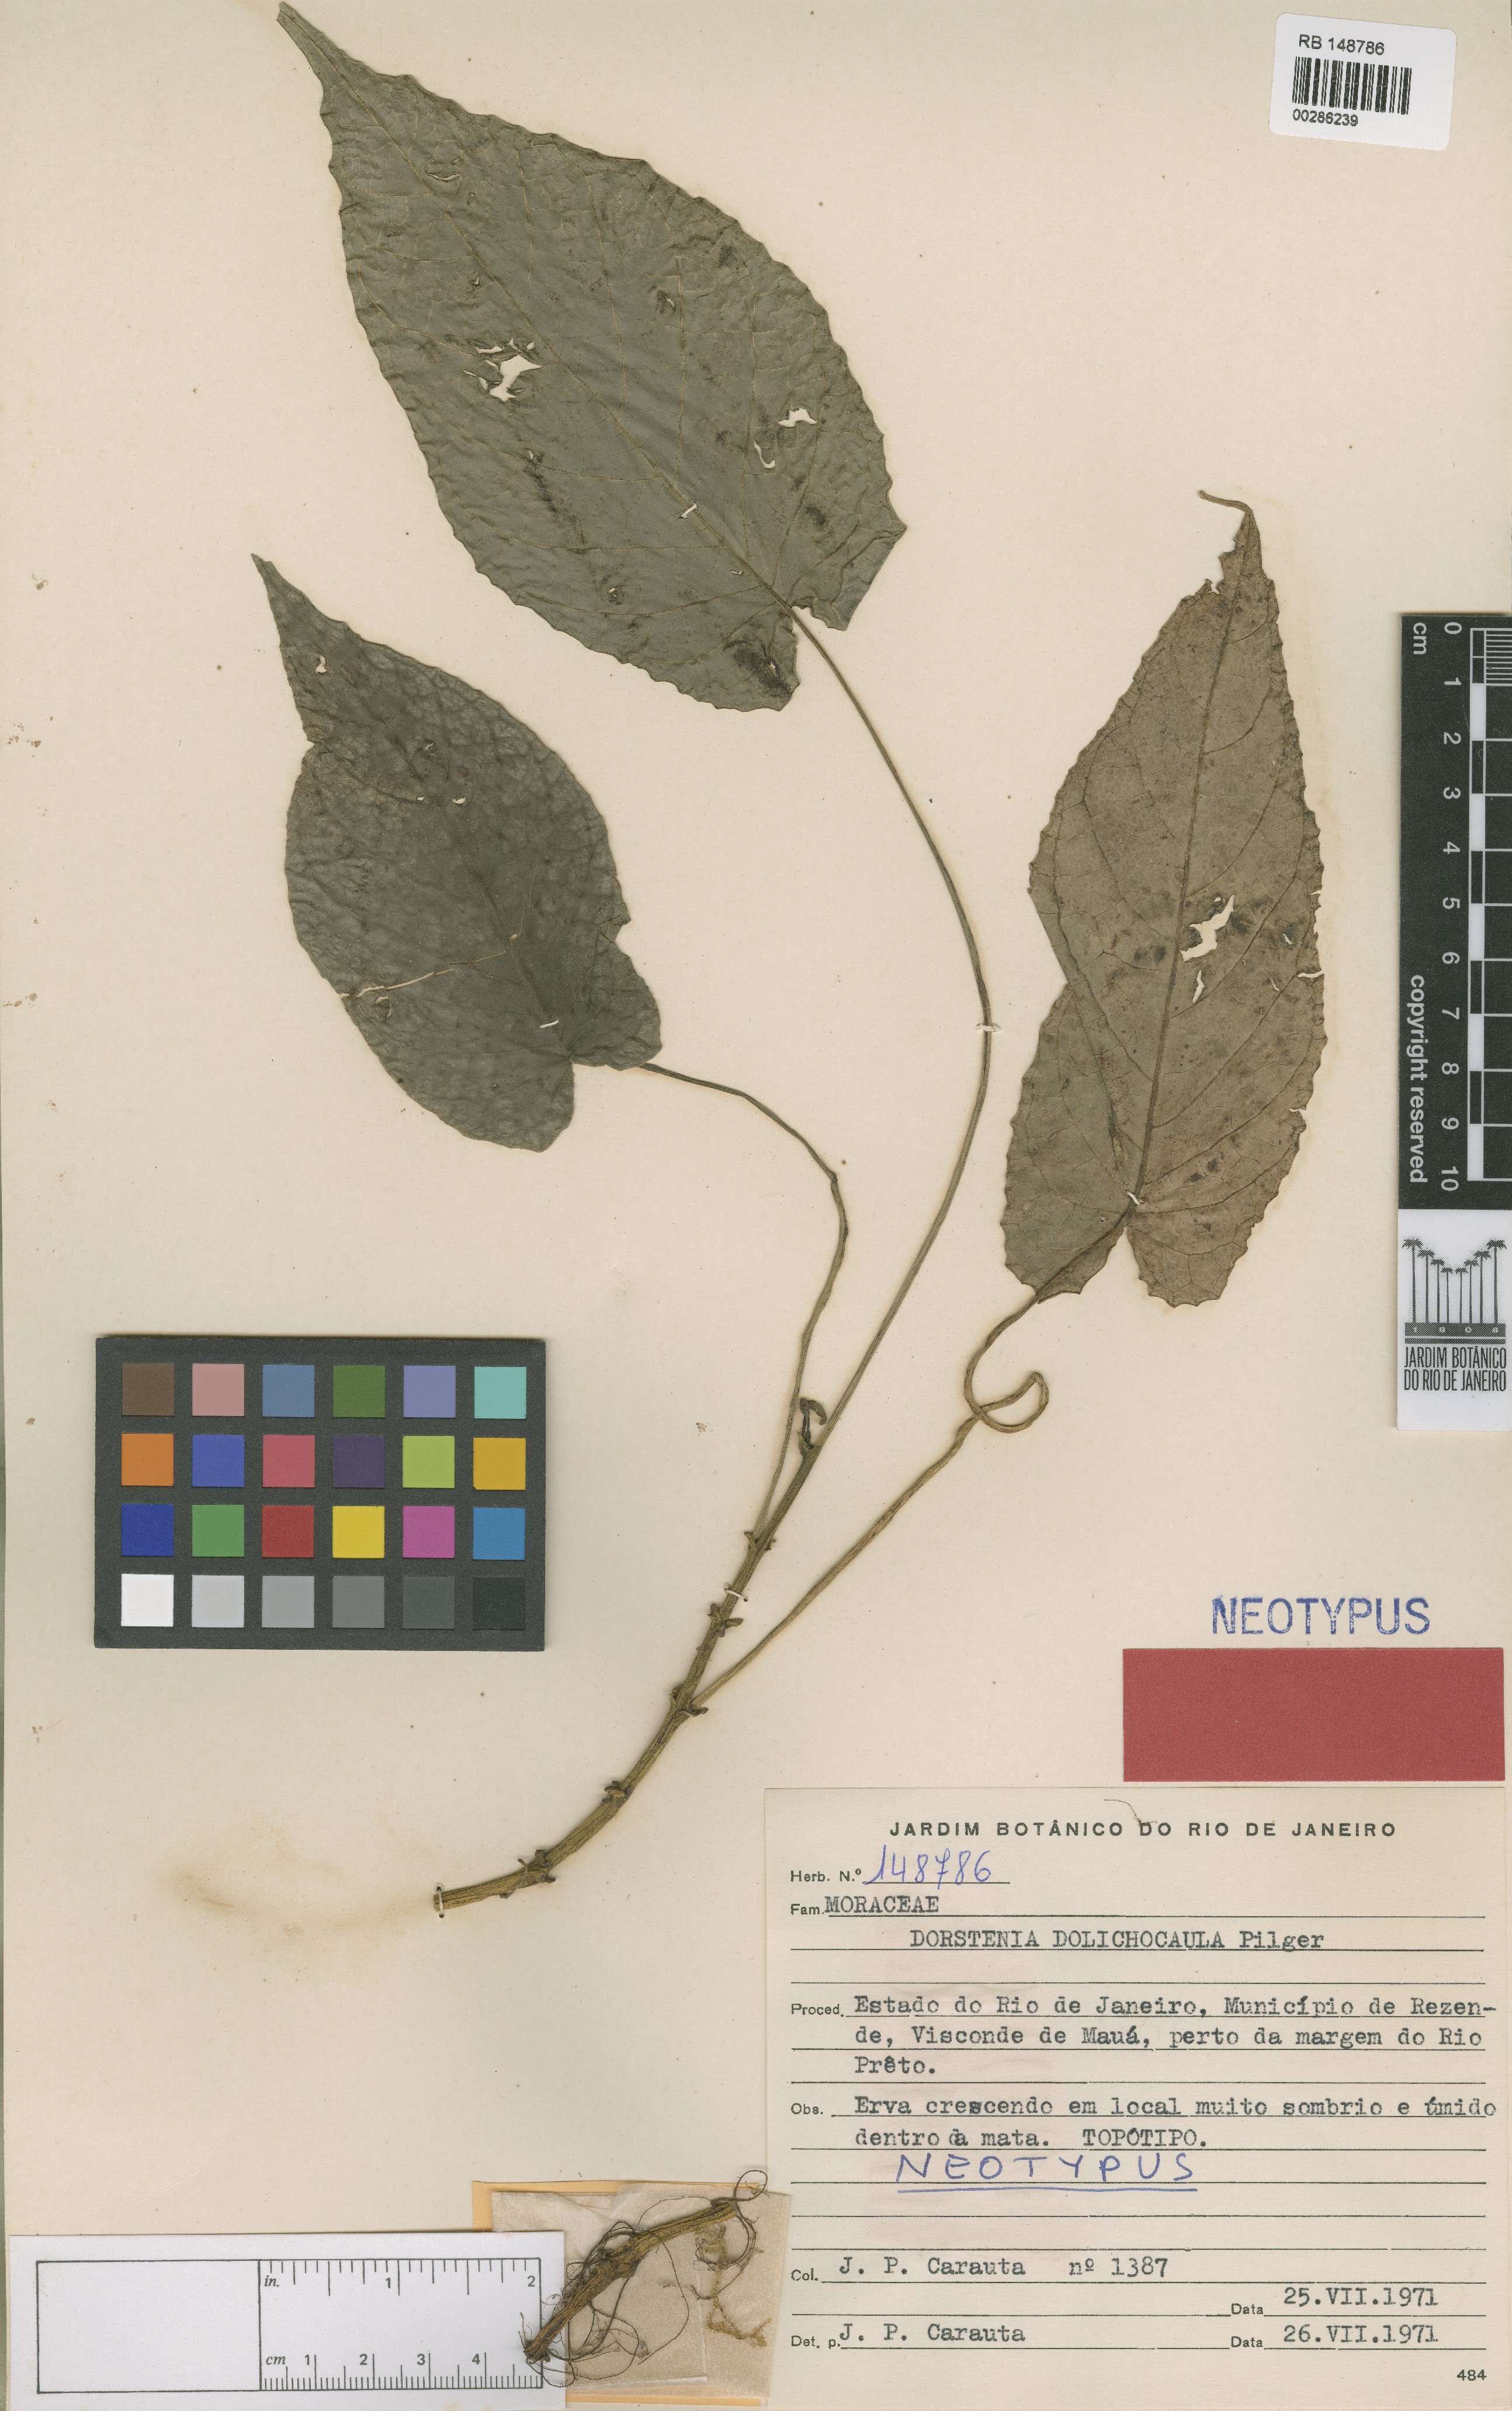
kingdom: Plantae
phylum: Tracheophyta
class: Magnoliopsida
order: Rosales
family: Moraceae
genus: Dorstenia
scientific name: Dorstenia ramosa
